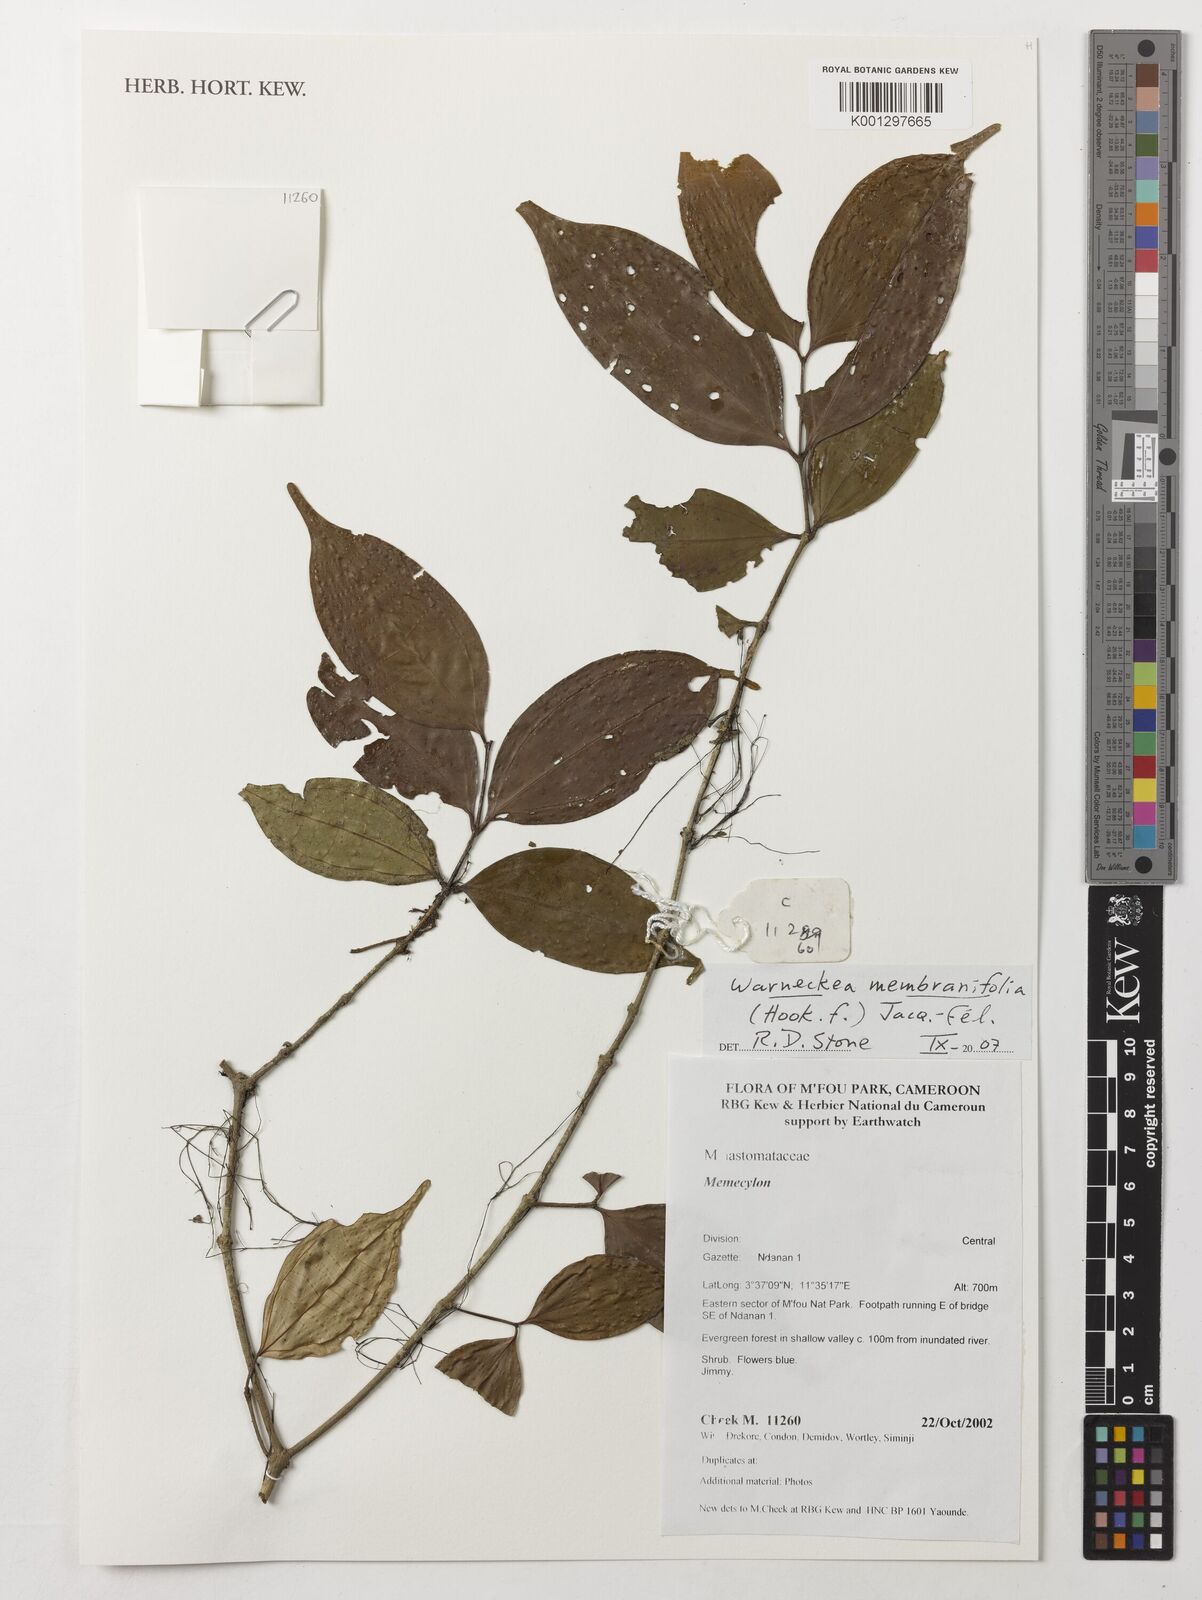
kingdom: Plantae
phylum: Tracheophyta
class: Magnoliopsida
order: Myrtales
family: Melastomataceae
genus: Warneckea
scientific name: Warneckea membranifolia
